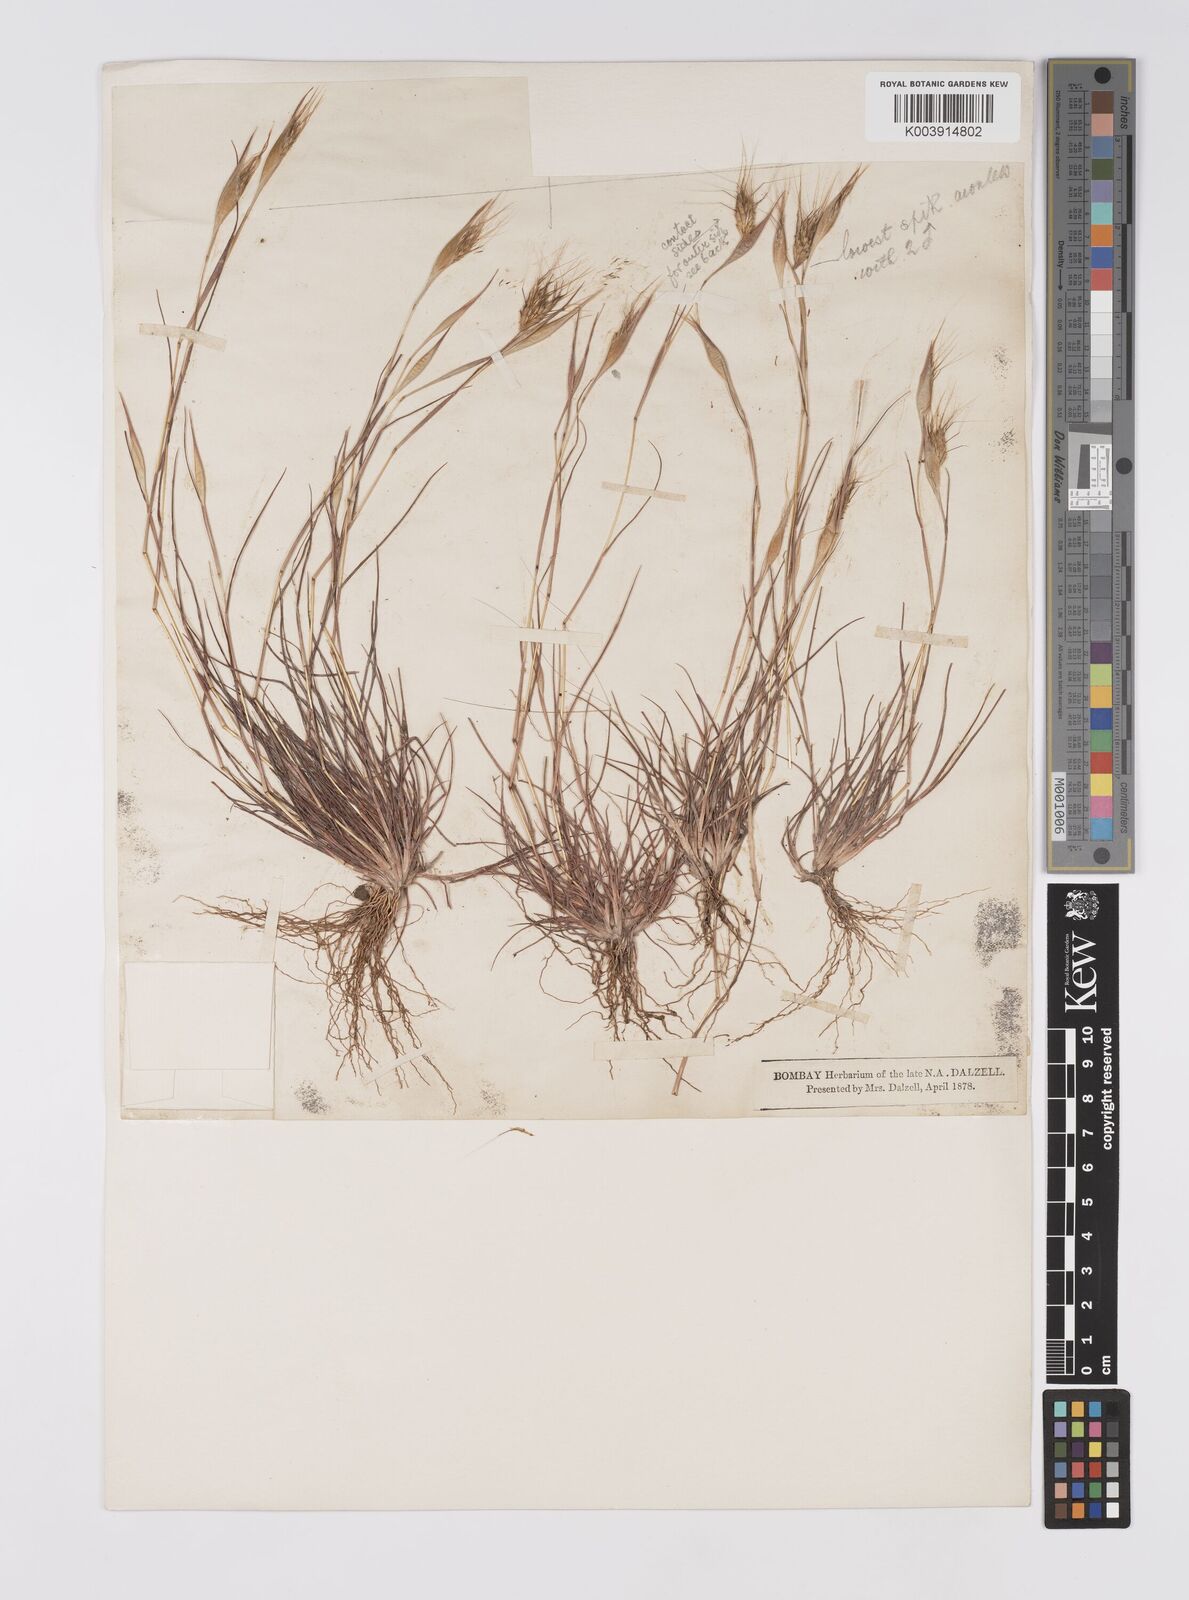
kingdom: Plantae
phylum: Tracheophyta
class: Liliopsida
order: Poales
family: Poaceae
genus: Lophopogon
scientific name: Lophopogon tridentatus
